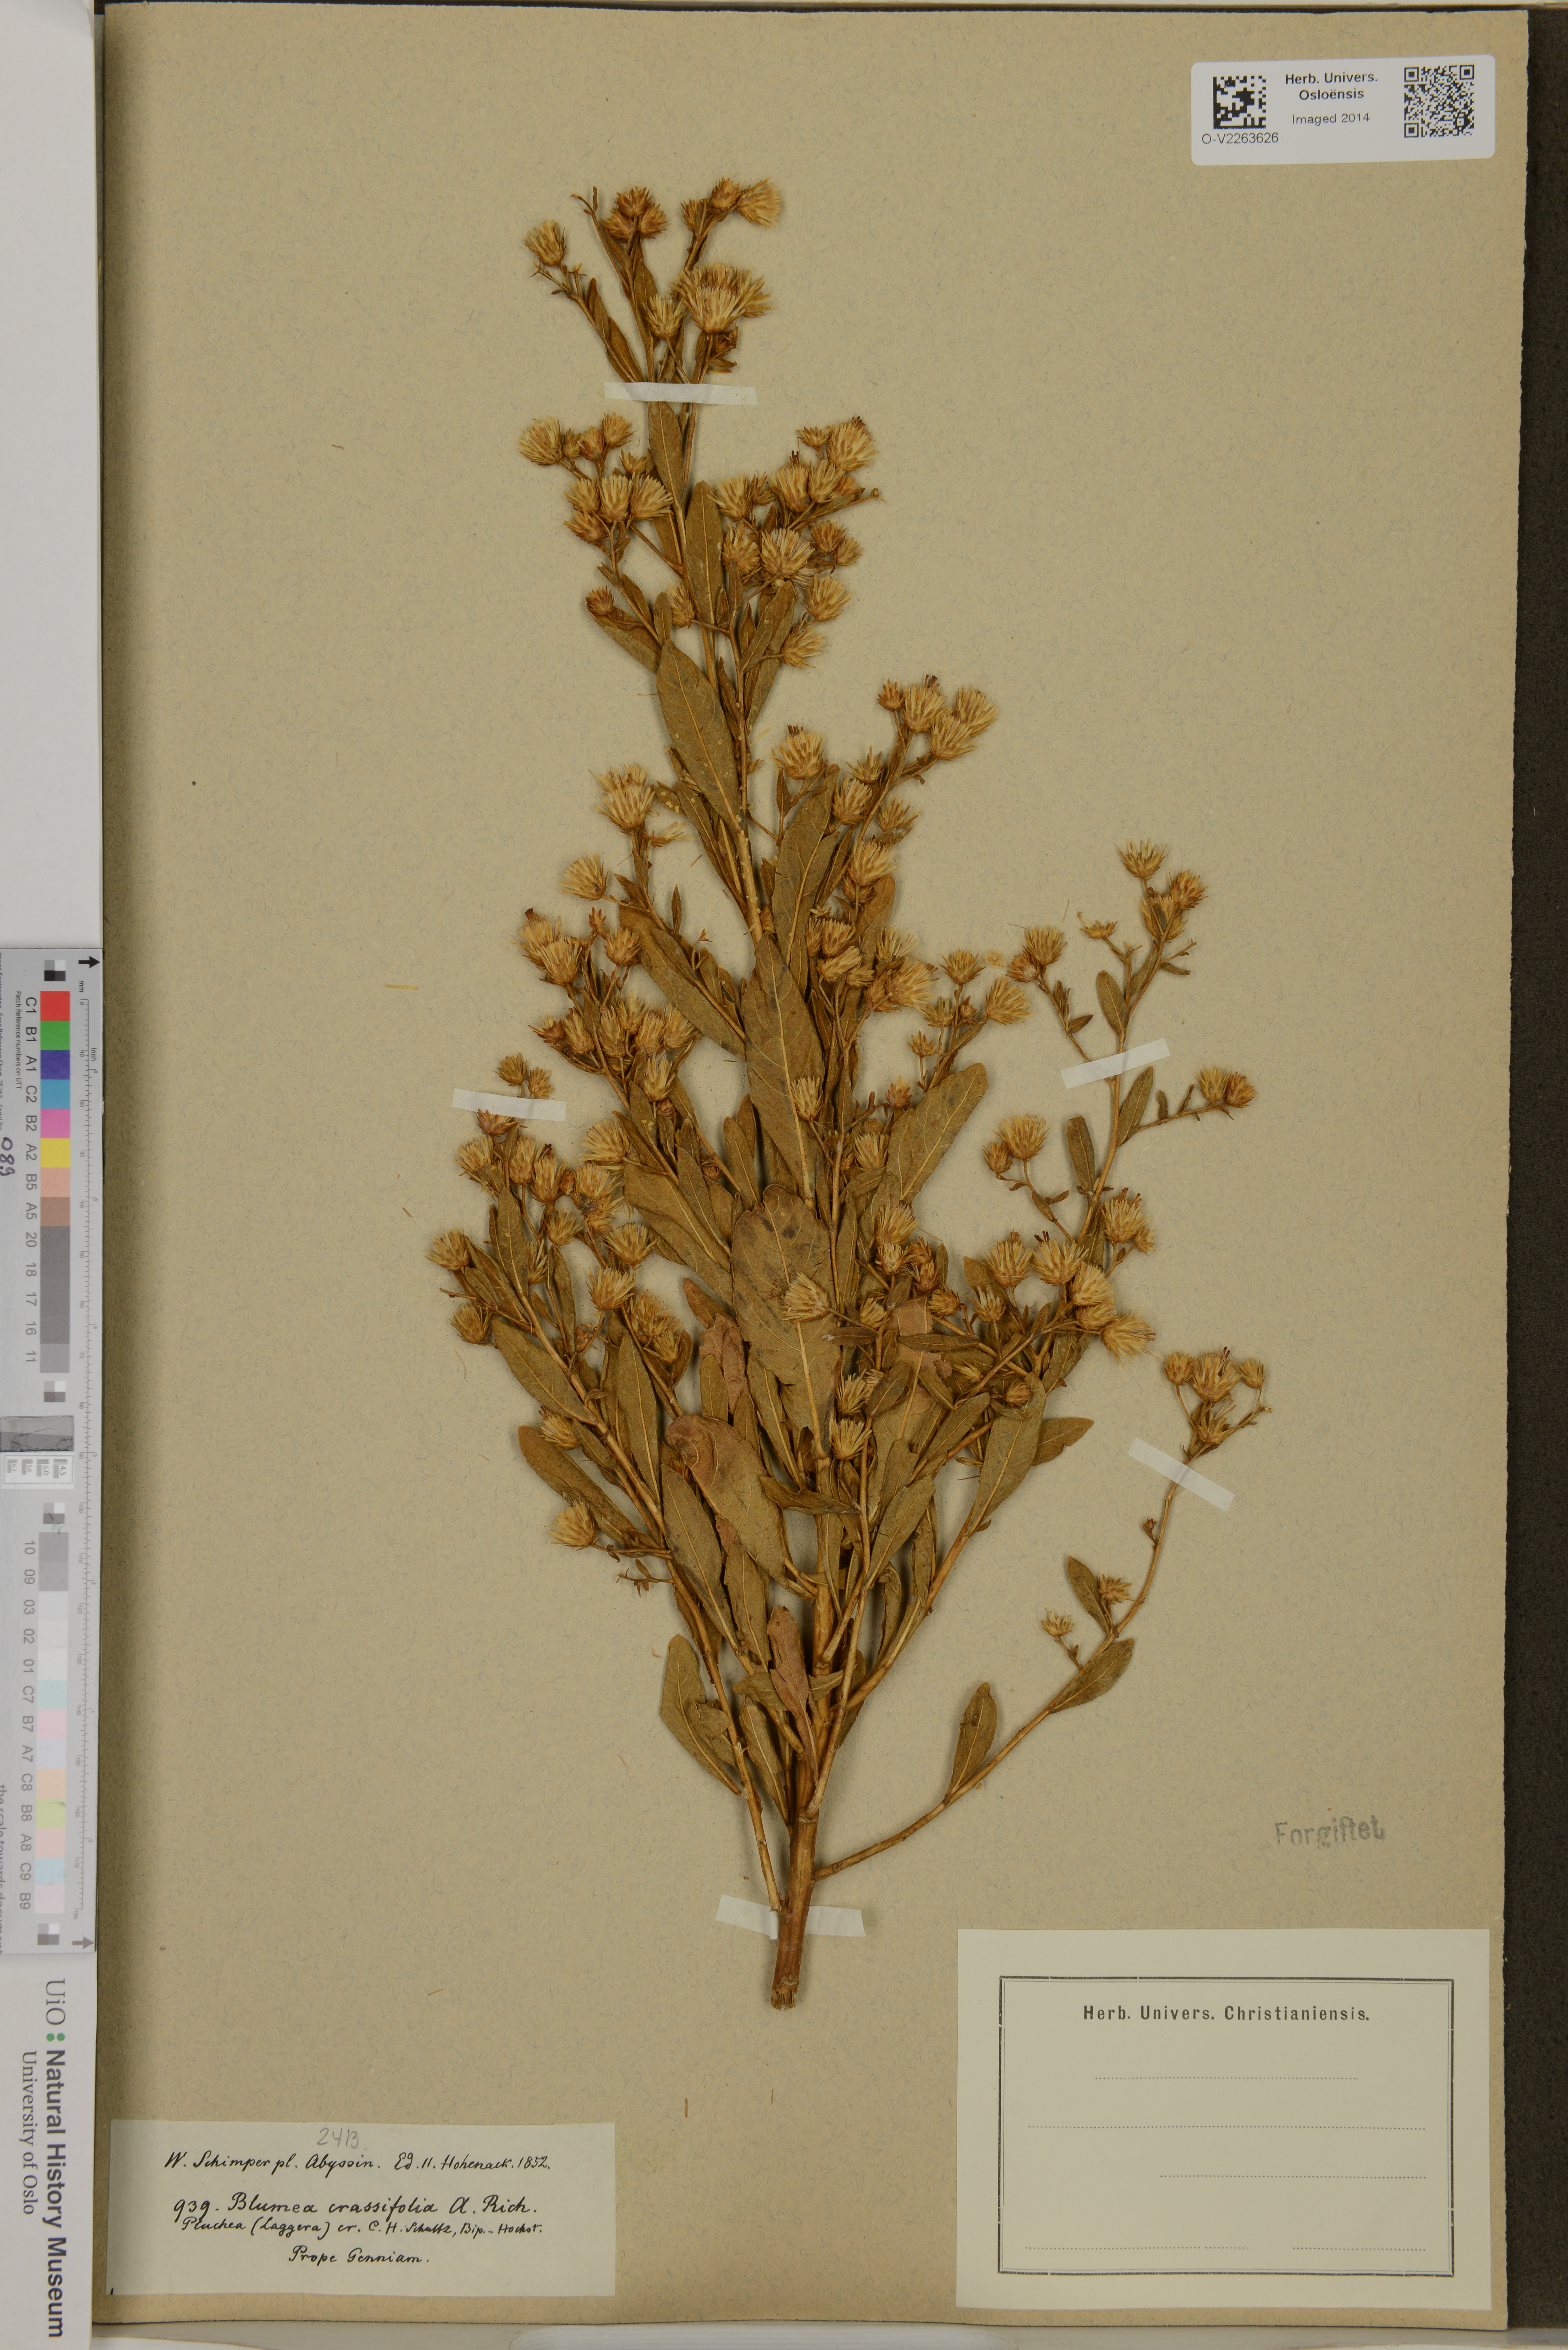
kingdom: Plantae
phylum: Tracheophyta
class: Magnoliopsida
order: Asterales
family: Asteraceae
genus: Laggera
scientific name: Laggera crassifolia
